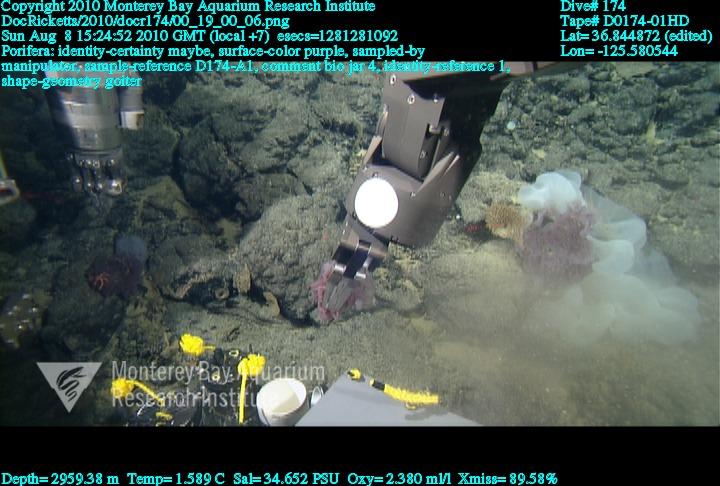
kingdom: Animalia
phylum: Porifera
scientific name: Porifera
